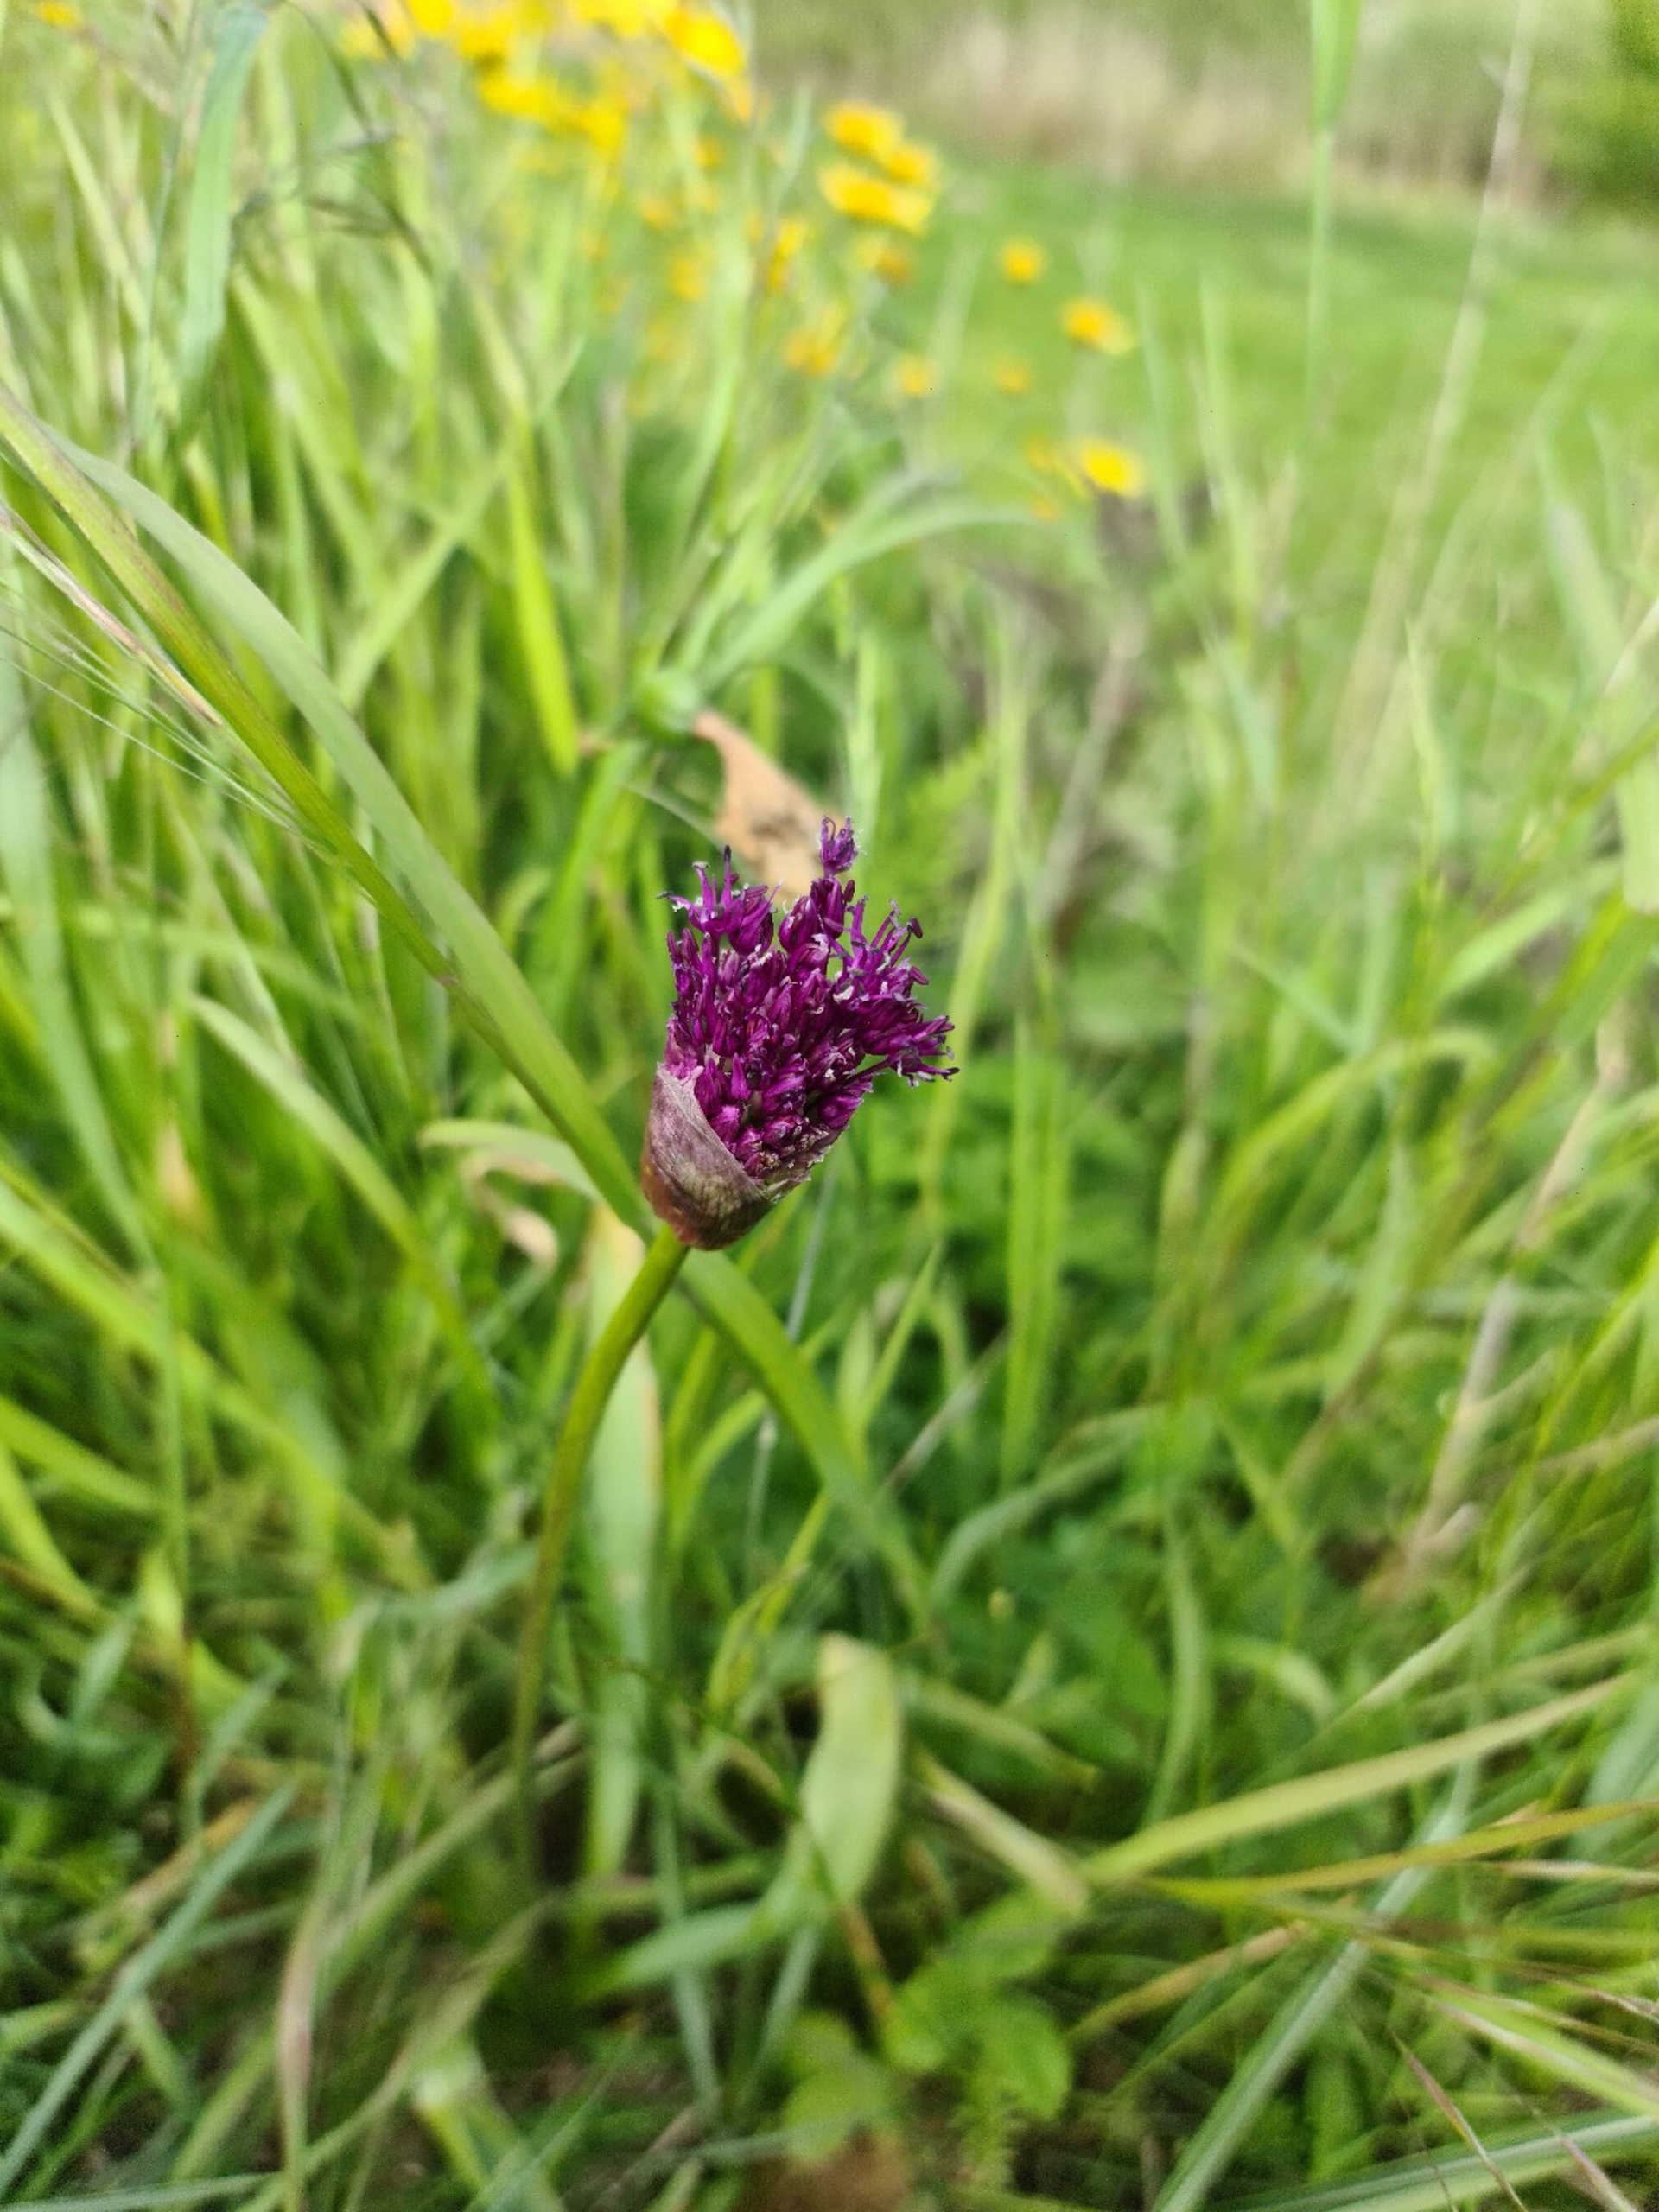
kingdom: Plantae
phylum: Tracheophyta
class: Liliopsida
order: Asparagales
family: Amaryllidaceae
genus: Allium
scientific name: Allium scorodoprasum
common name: Skov-løg
